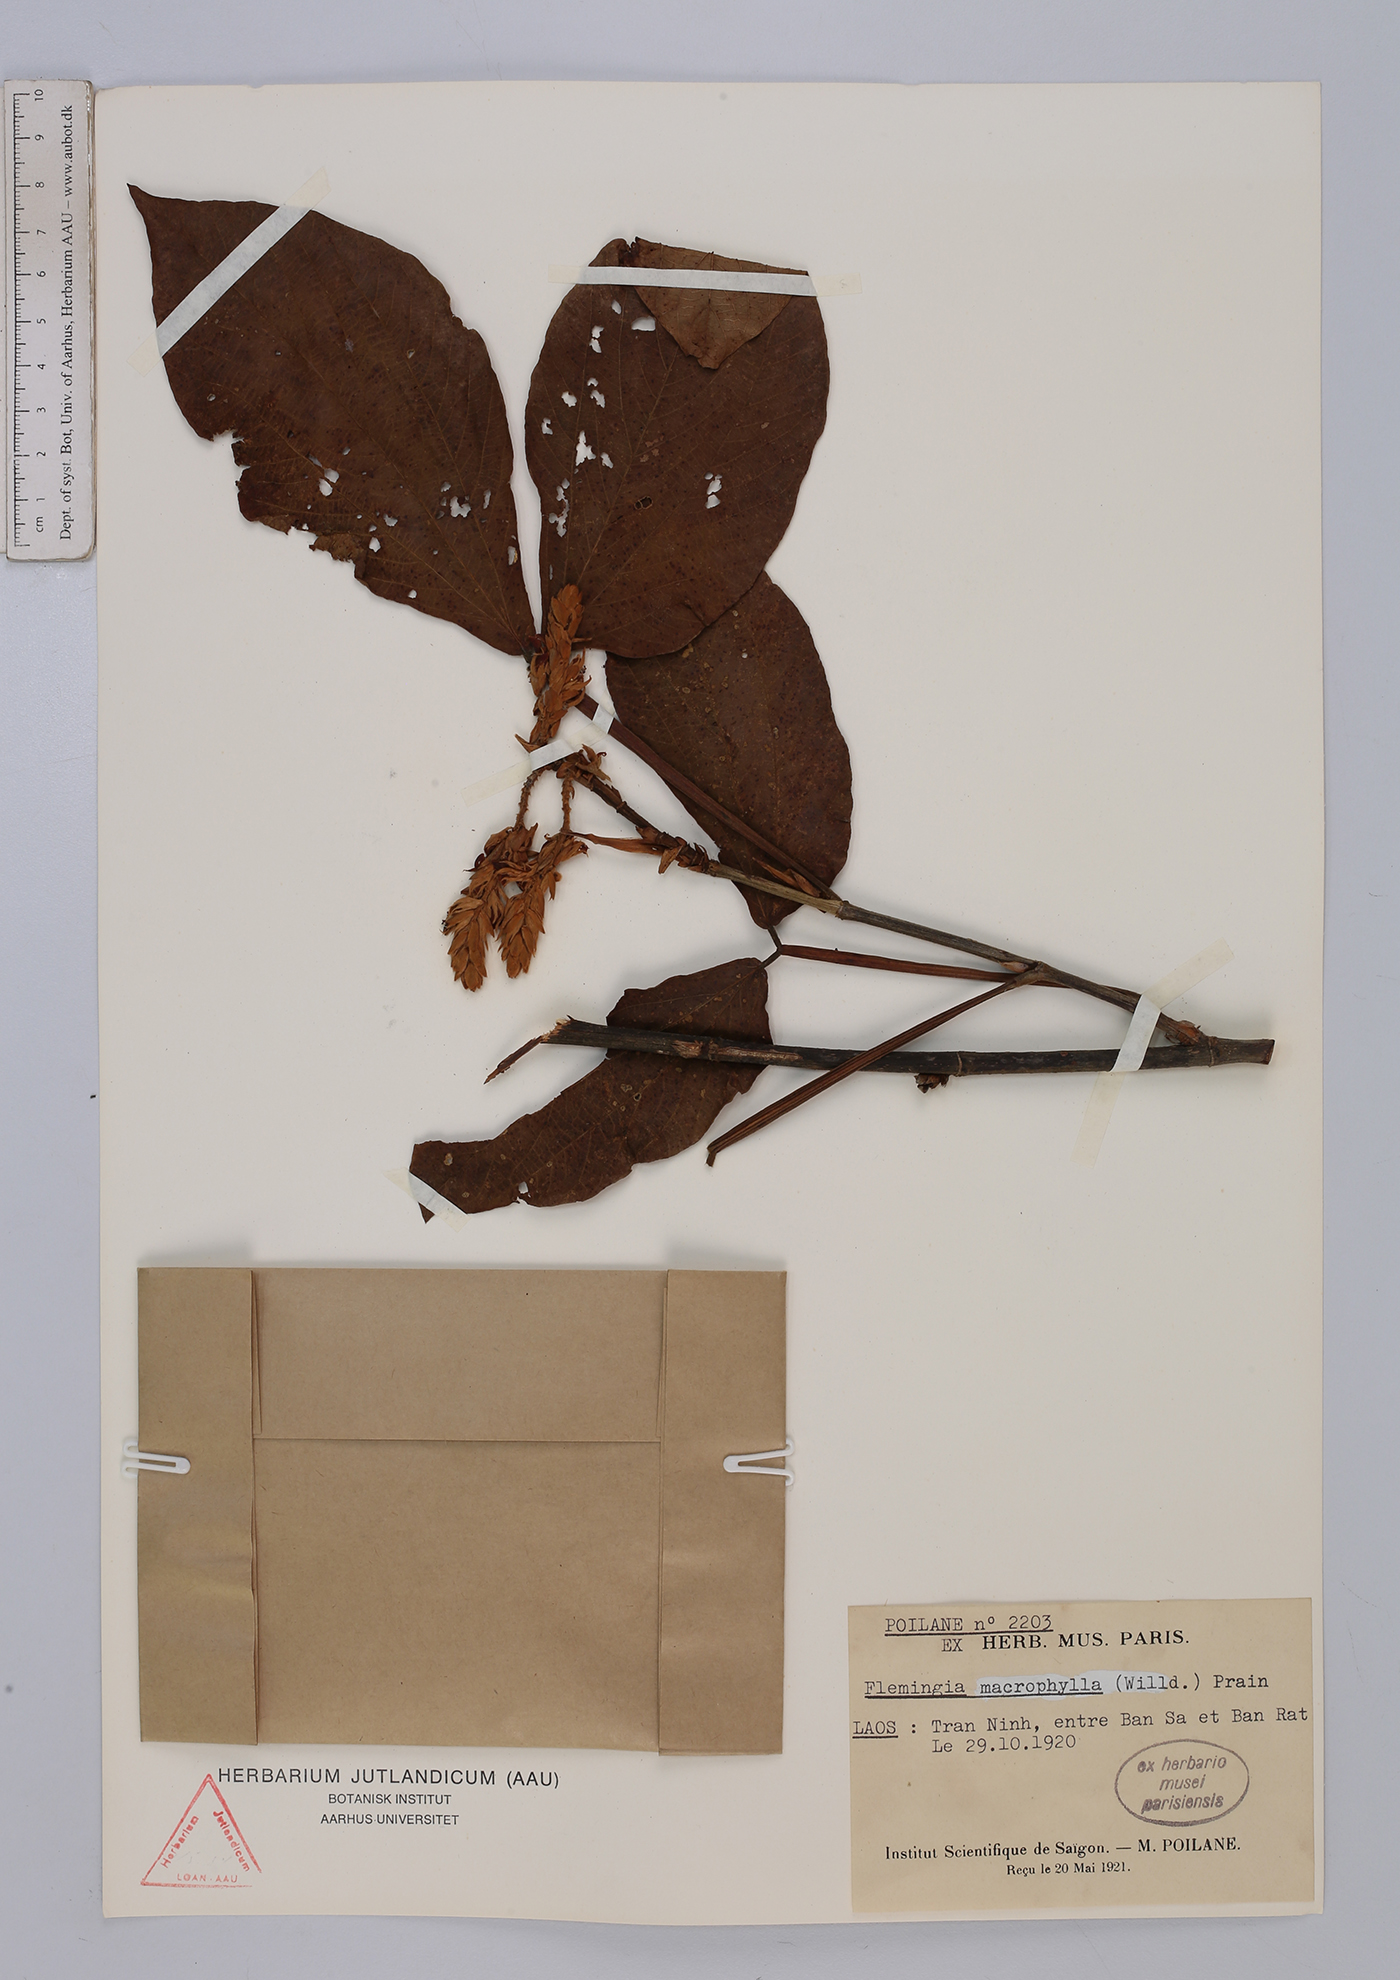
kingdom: Plantae
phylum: Tracheophyta
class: Magnoliopsida
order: Fabales
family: Fabaceae
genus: Flemingia
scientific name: Flemingia macrophylla
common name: Flemingia
